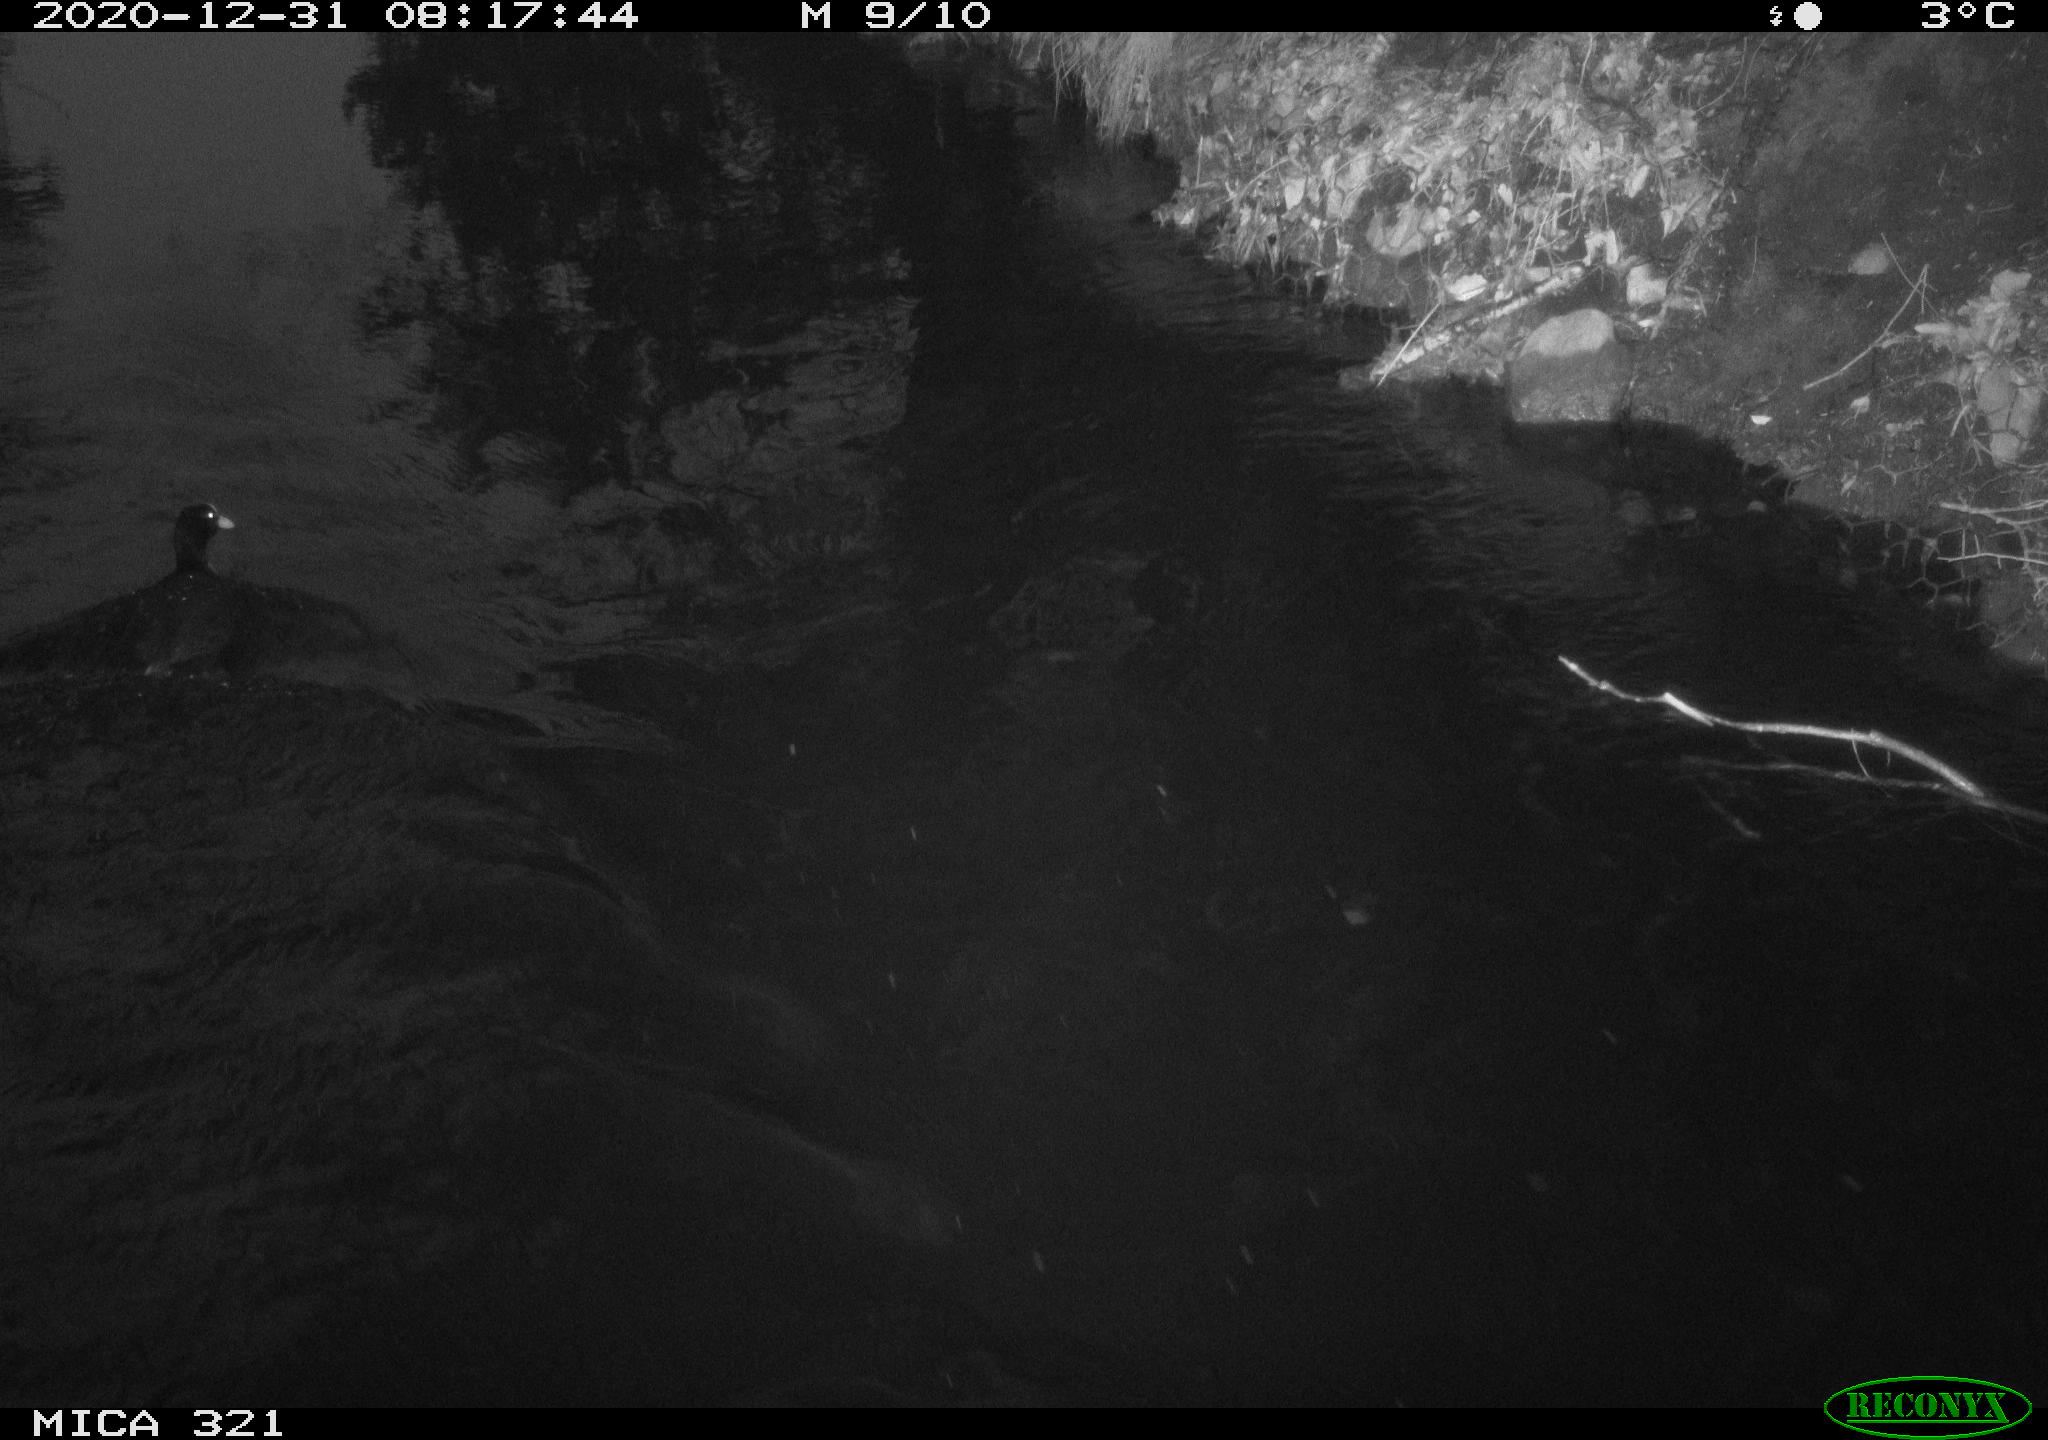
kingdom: Animalia
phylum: Chordata
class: Aves
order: Gruiformes
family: Rallidae
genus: Fulica
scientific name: Fulica atra
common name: Eurasian coot
